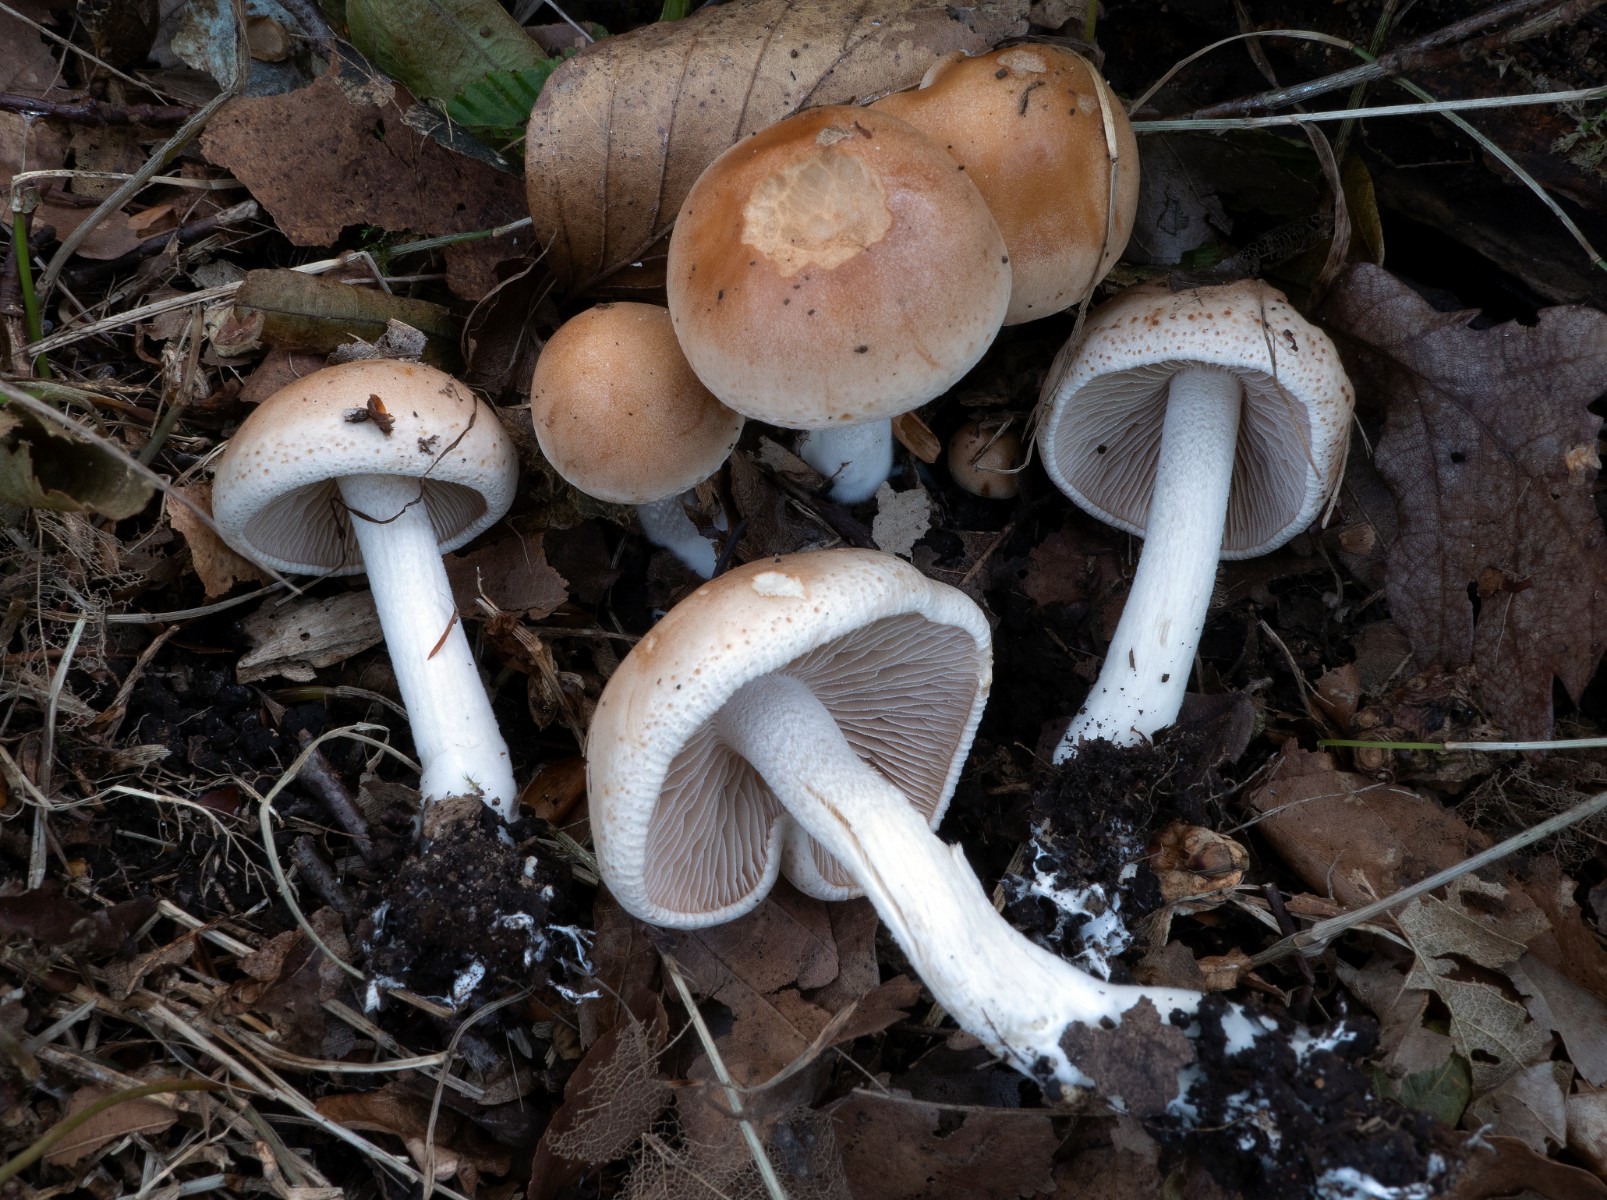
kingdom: Fungi
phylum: Basidiomycota
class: Agaricomycetes
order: Agaricales
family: Hymenogastraceae
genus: Hebeloma
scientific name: Hebeloma aestivale
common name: sommer-tåreblad
